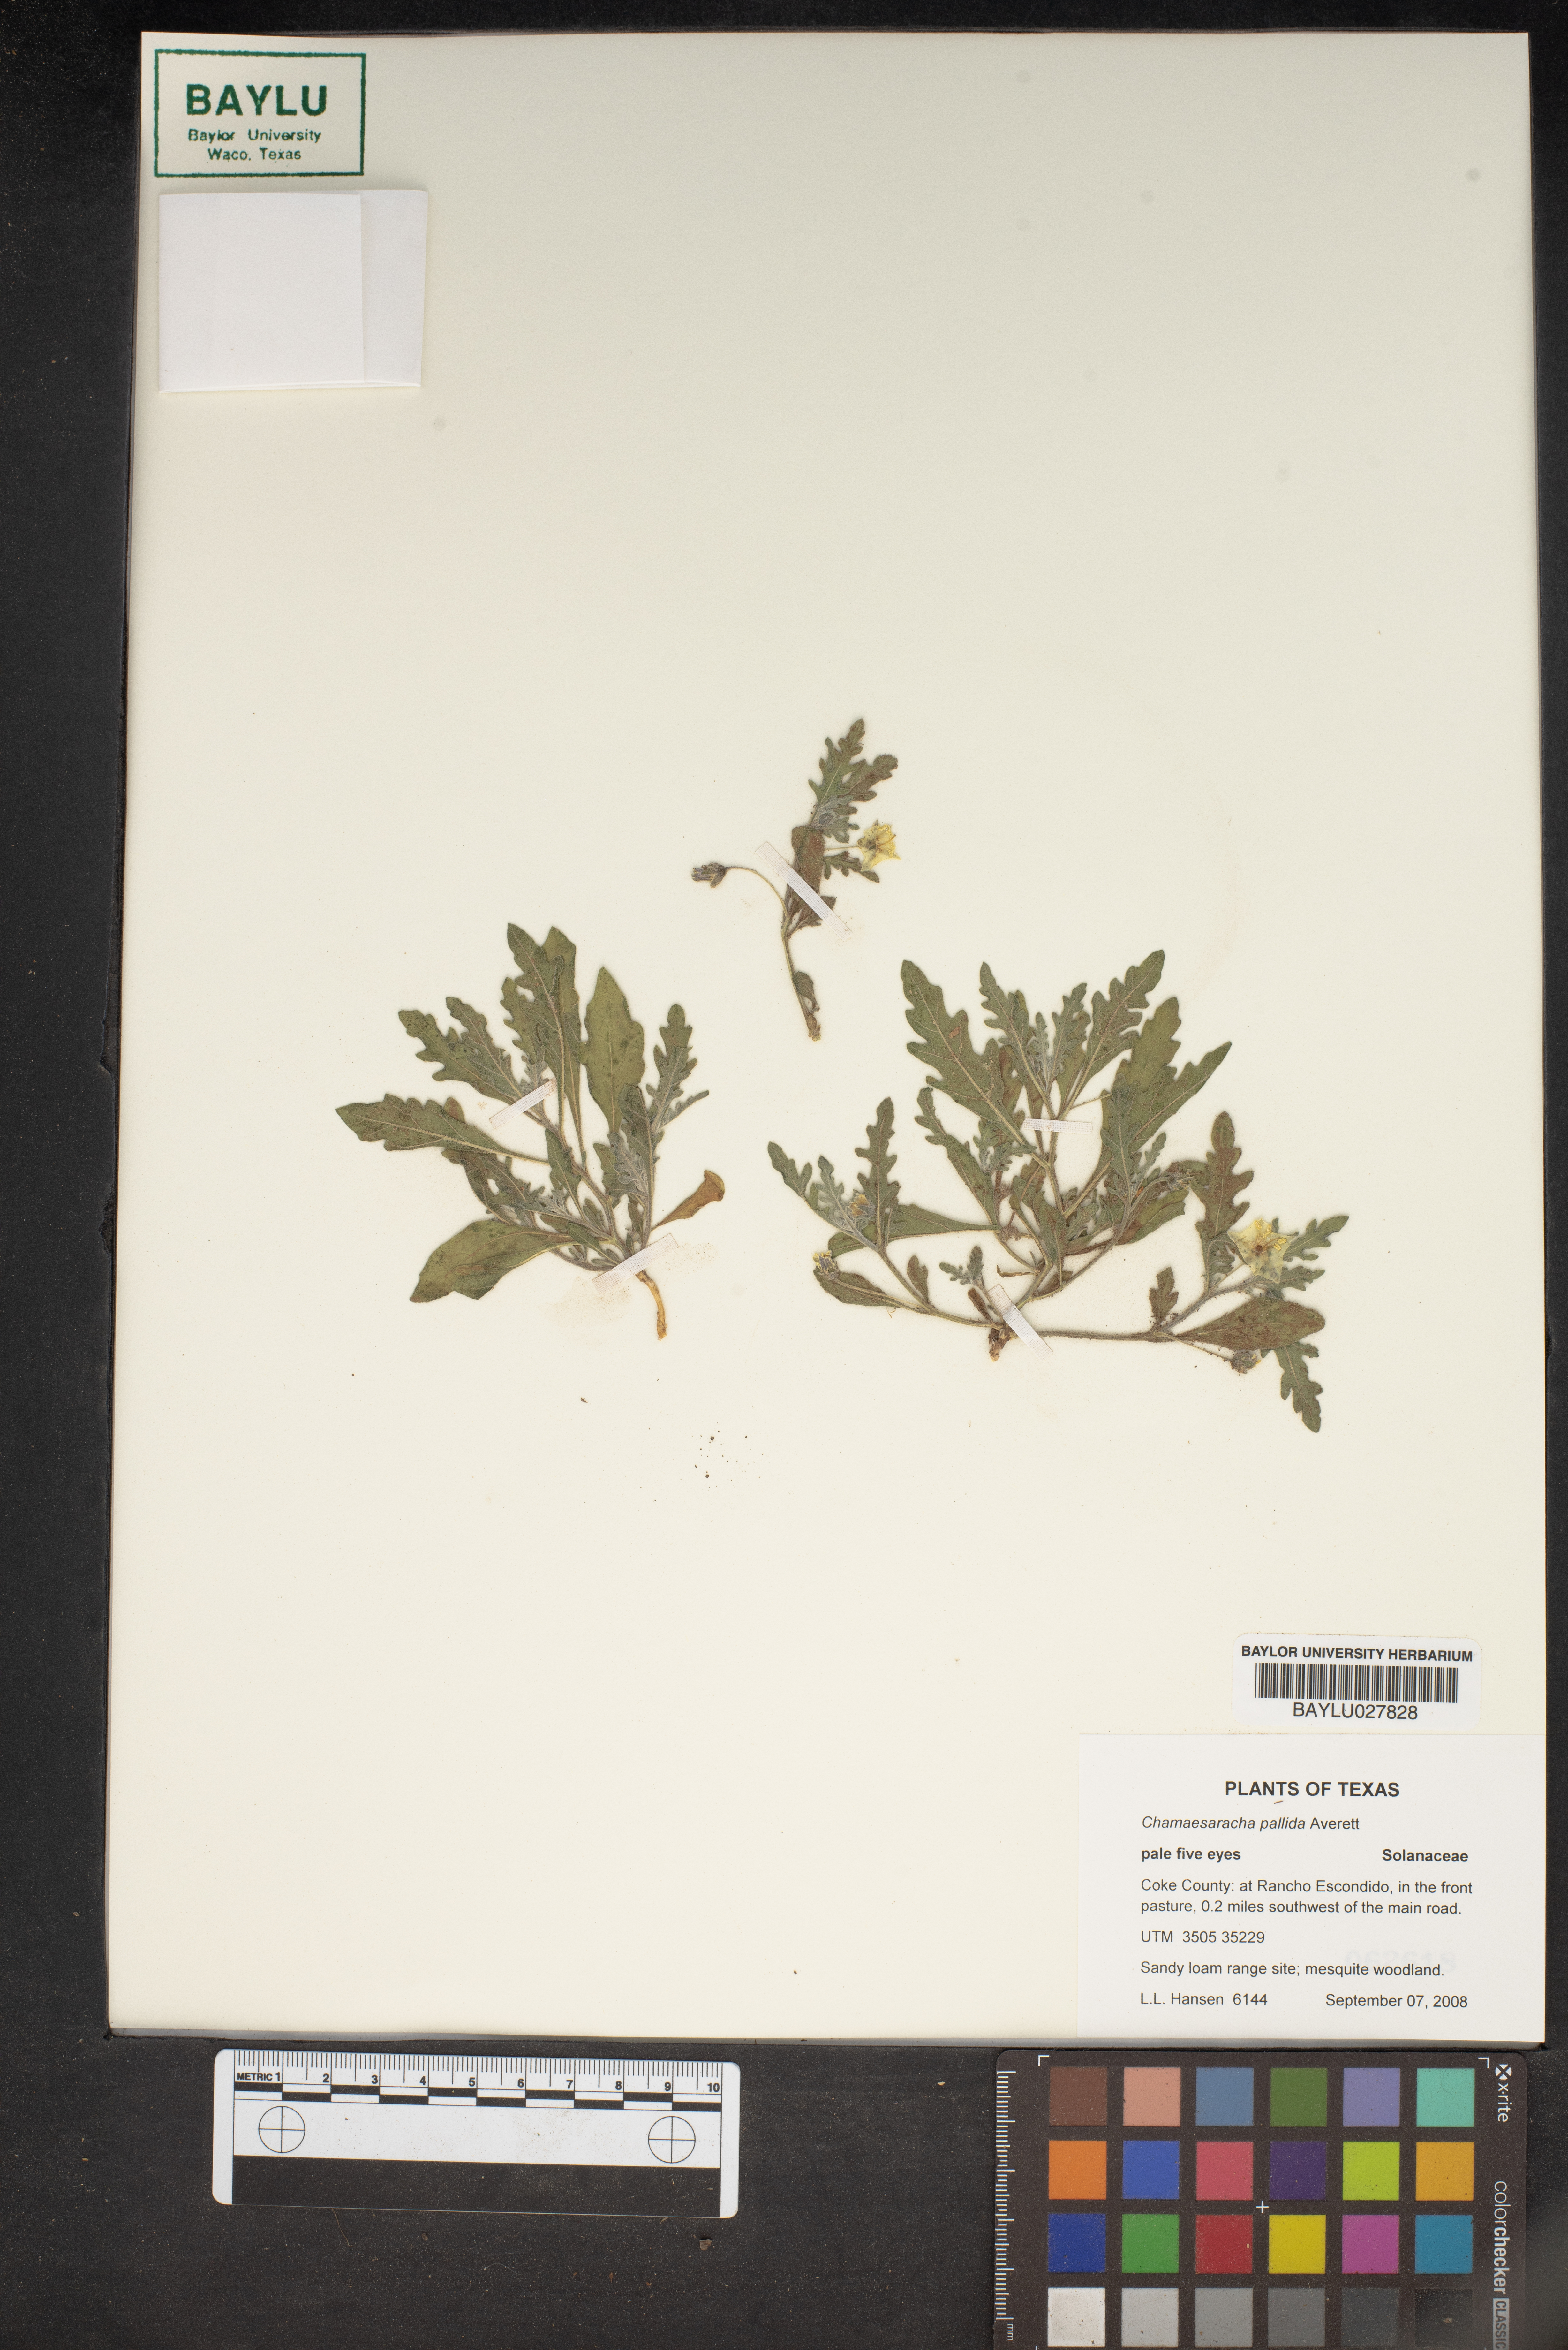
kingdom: Plantae
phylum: Tracheophyta
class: Magnoliopsida
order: Solanales
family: Solanaceae
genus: Chamaesaracha
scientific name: Chamaesaracha pallida
